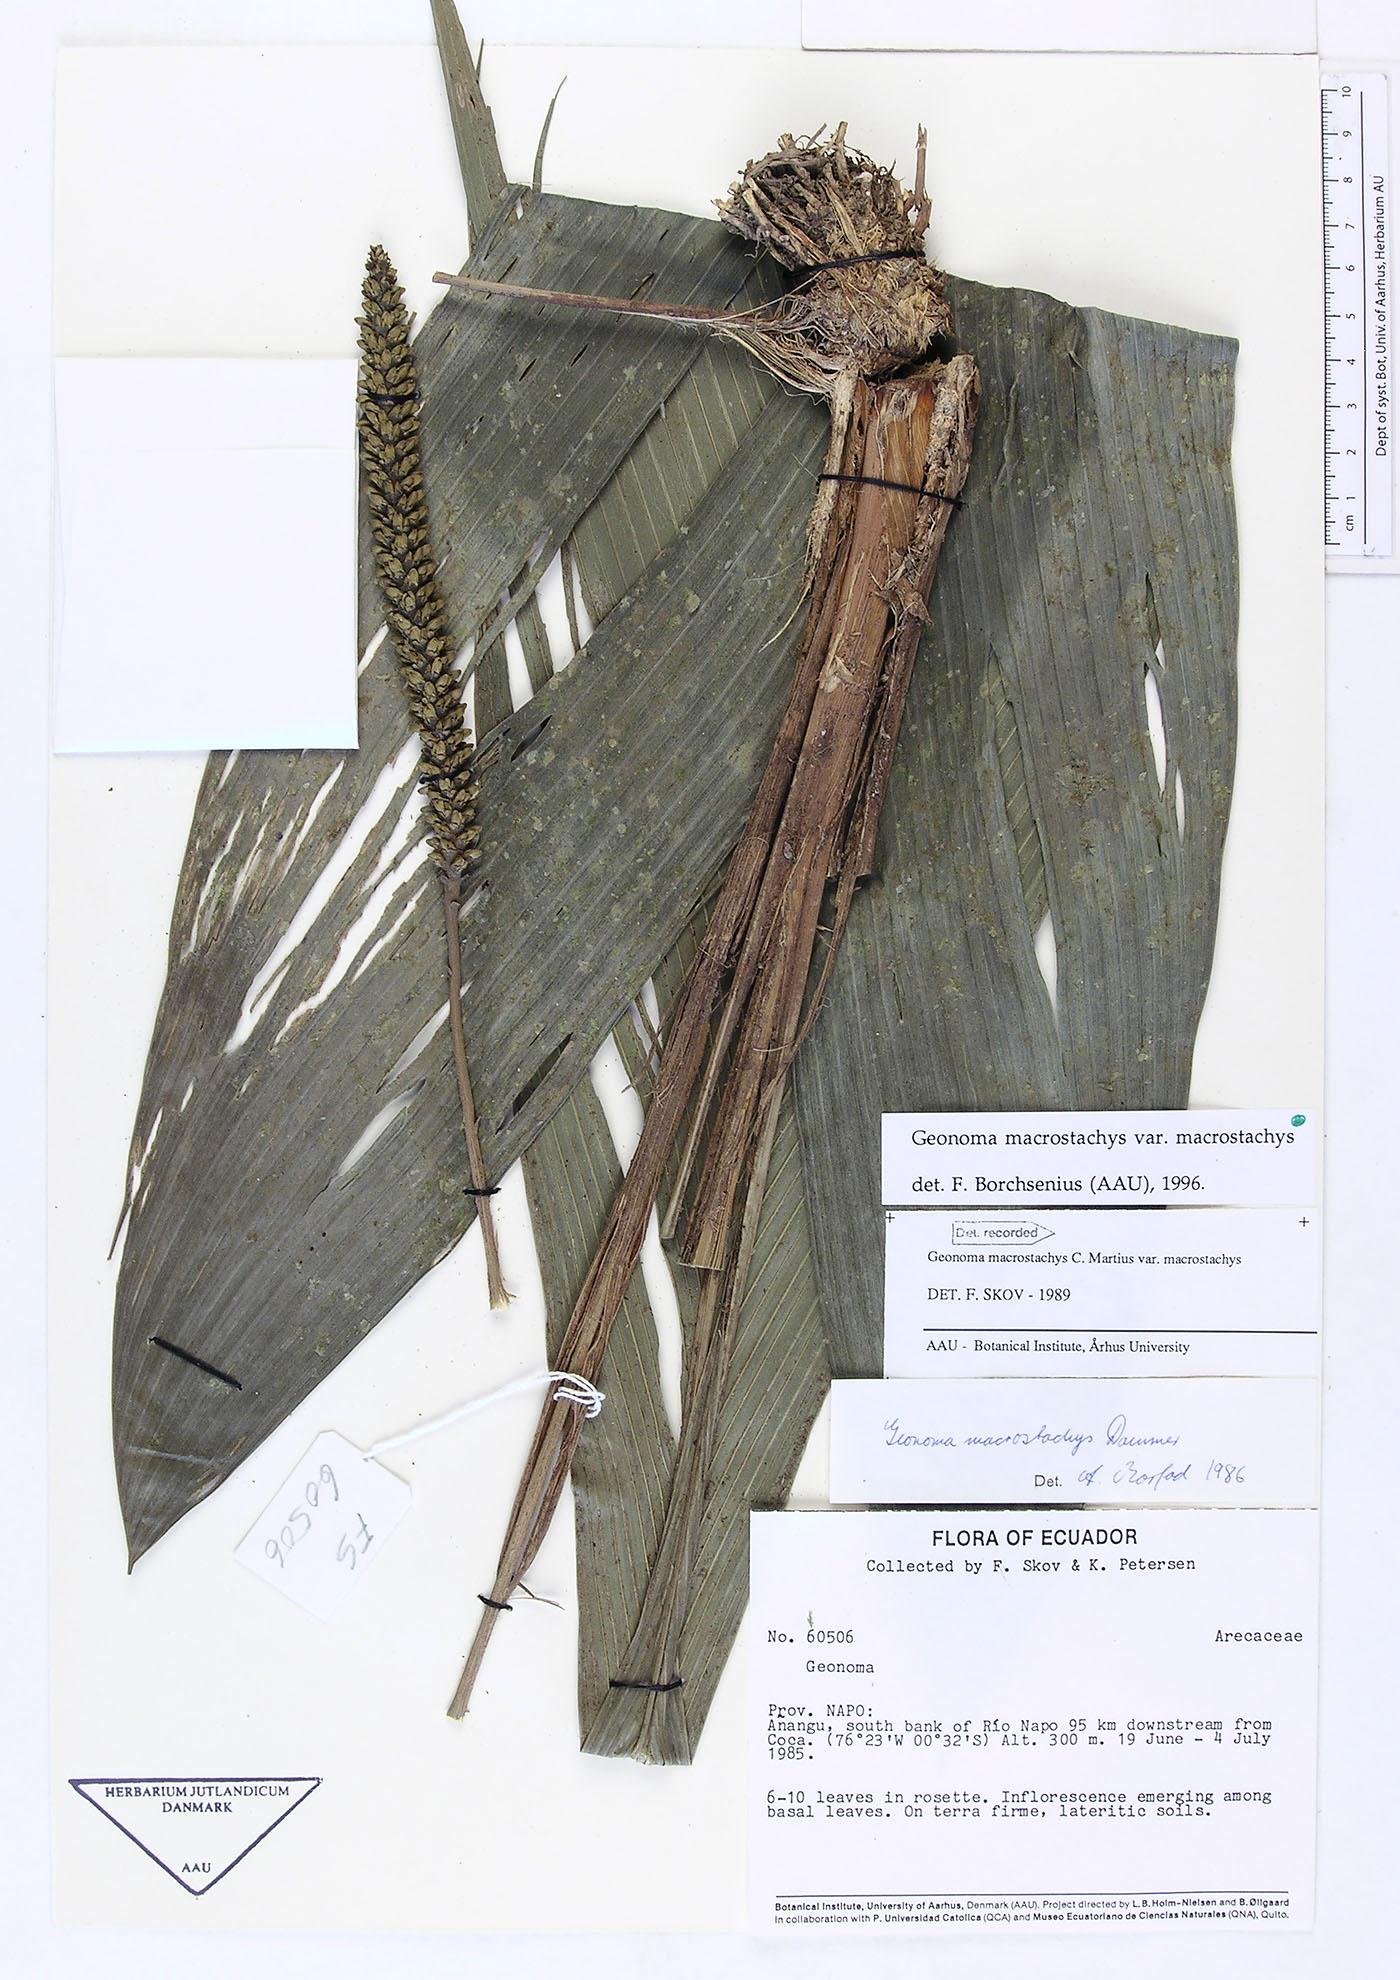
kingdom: Plantae
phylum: Tracheophyta
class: Liliopsida
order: Arecales
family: Arecaceae
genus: Geonoma
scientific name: Geonoma macrostachys
